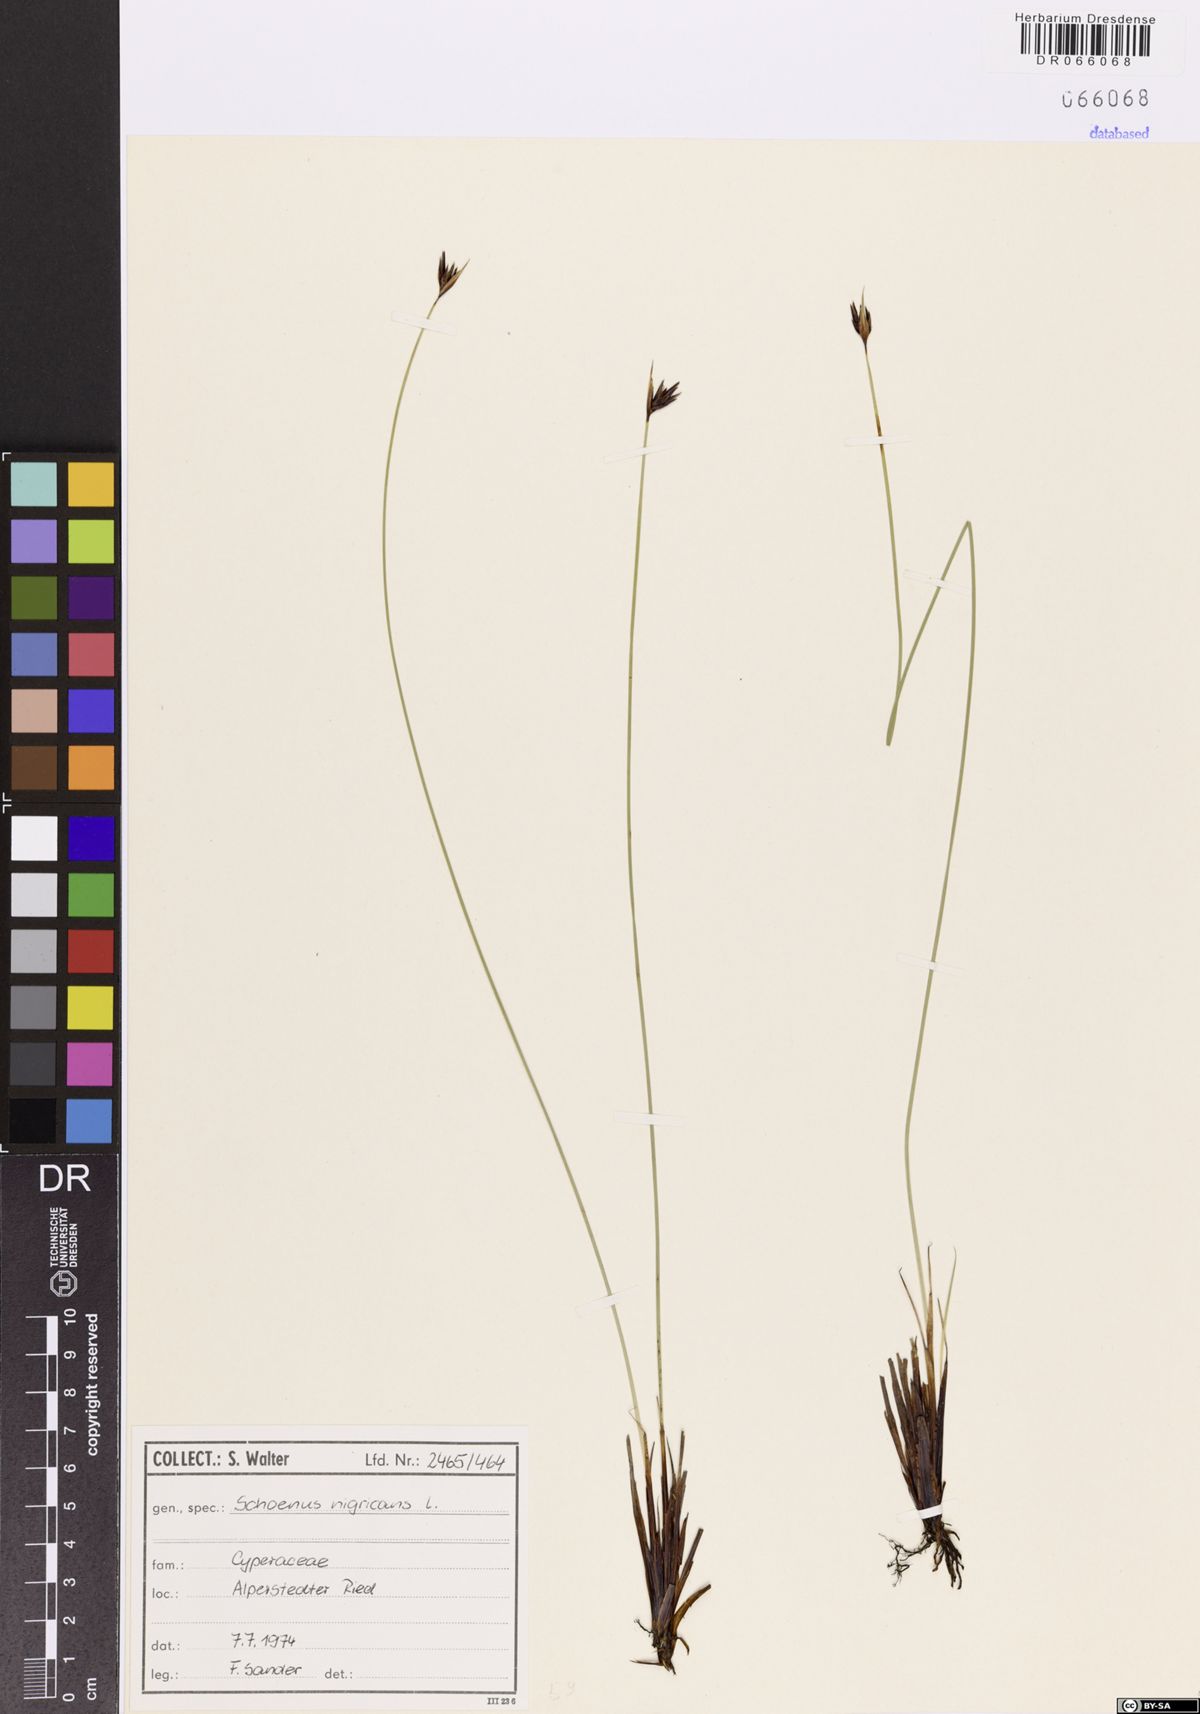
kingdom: Plantae
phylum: Tracheophyta
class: Liliopsida
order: Poales
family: Cyperaceae
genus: Schoenus
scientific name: Schoenus nigricans
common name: Black bog-rush
